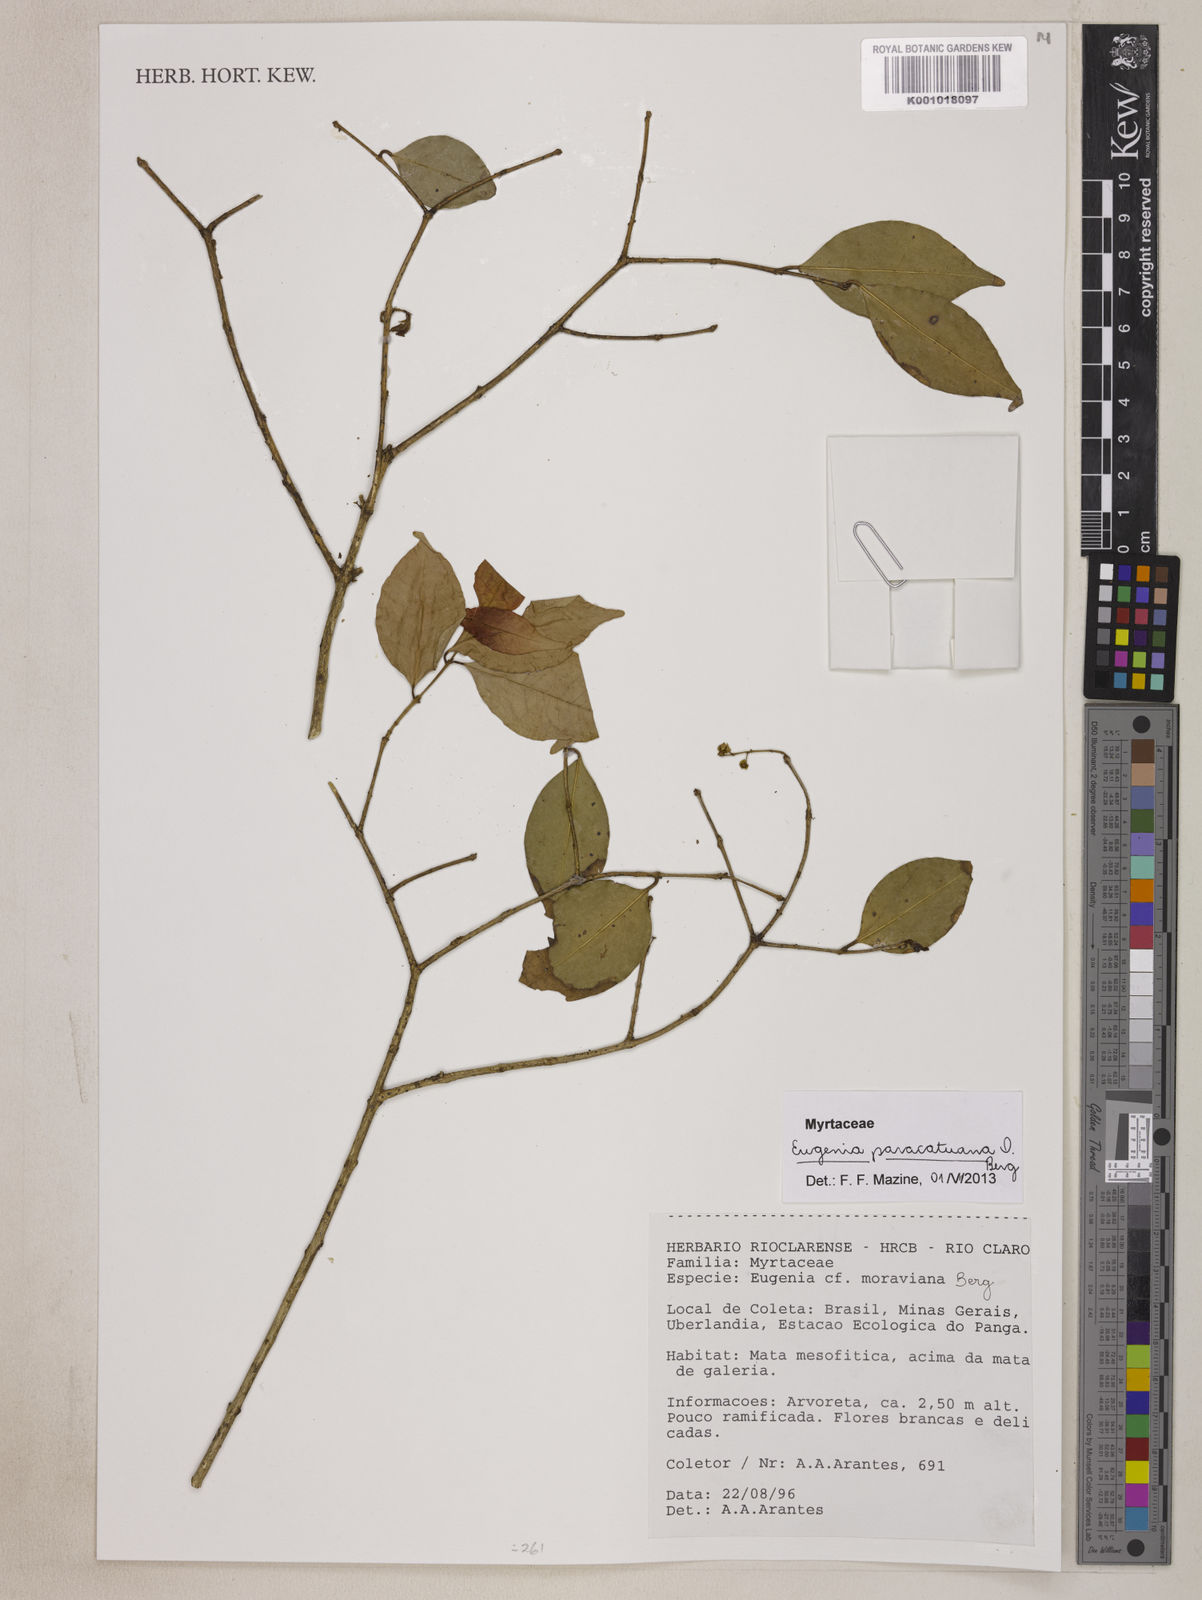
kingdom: Plantae
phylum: Tracheophyta
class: Magnoliopsida
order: Myrtales
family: Myrtaceae
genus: Eugenia
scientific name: Eugenia moraviana
